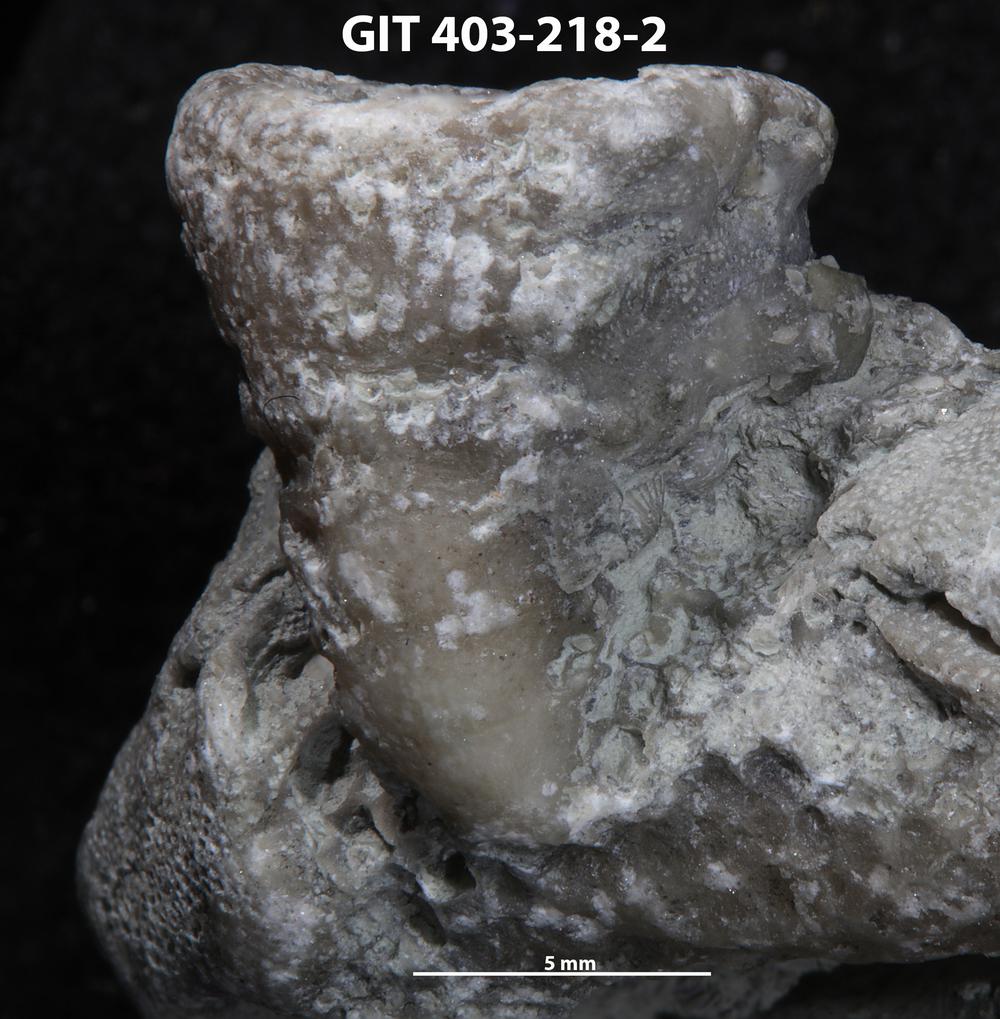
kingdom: Animalia
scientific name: Animalia
